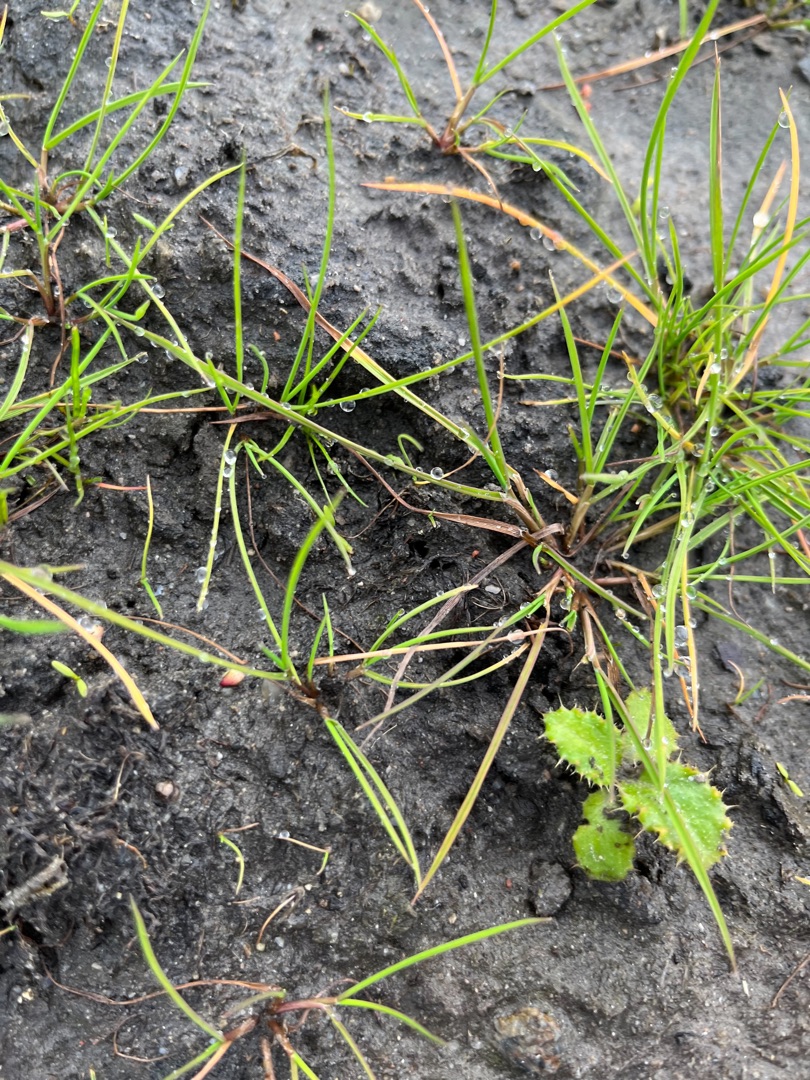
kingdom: Plantae
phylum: Tracheophyta
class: Liliopsida
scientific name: Liliopsida
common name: Enkimbladede
